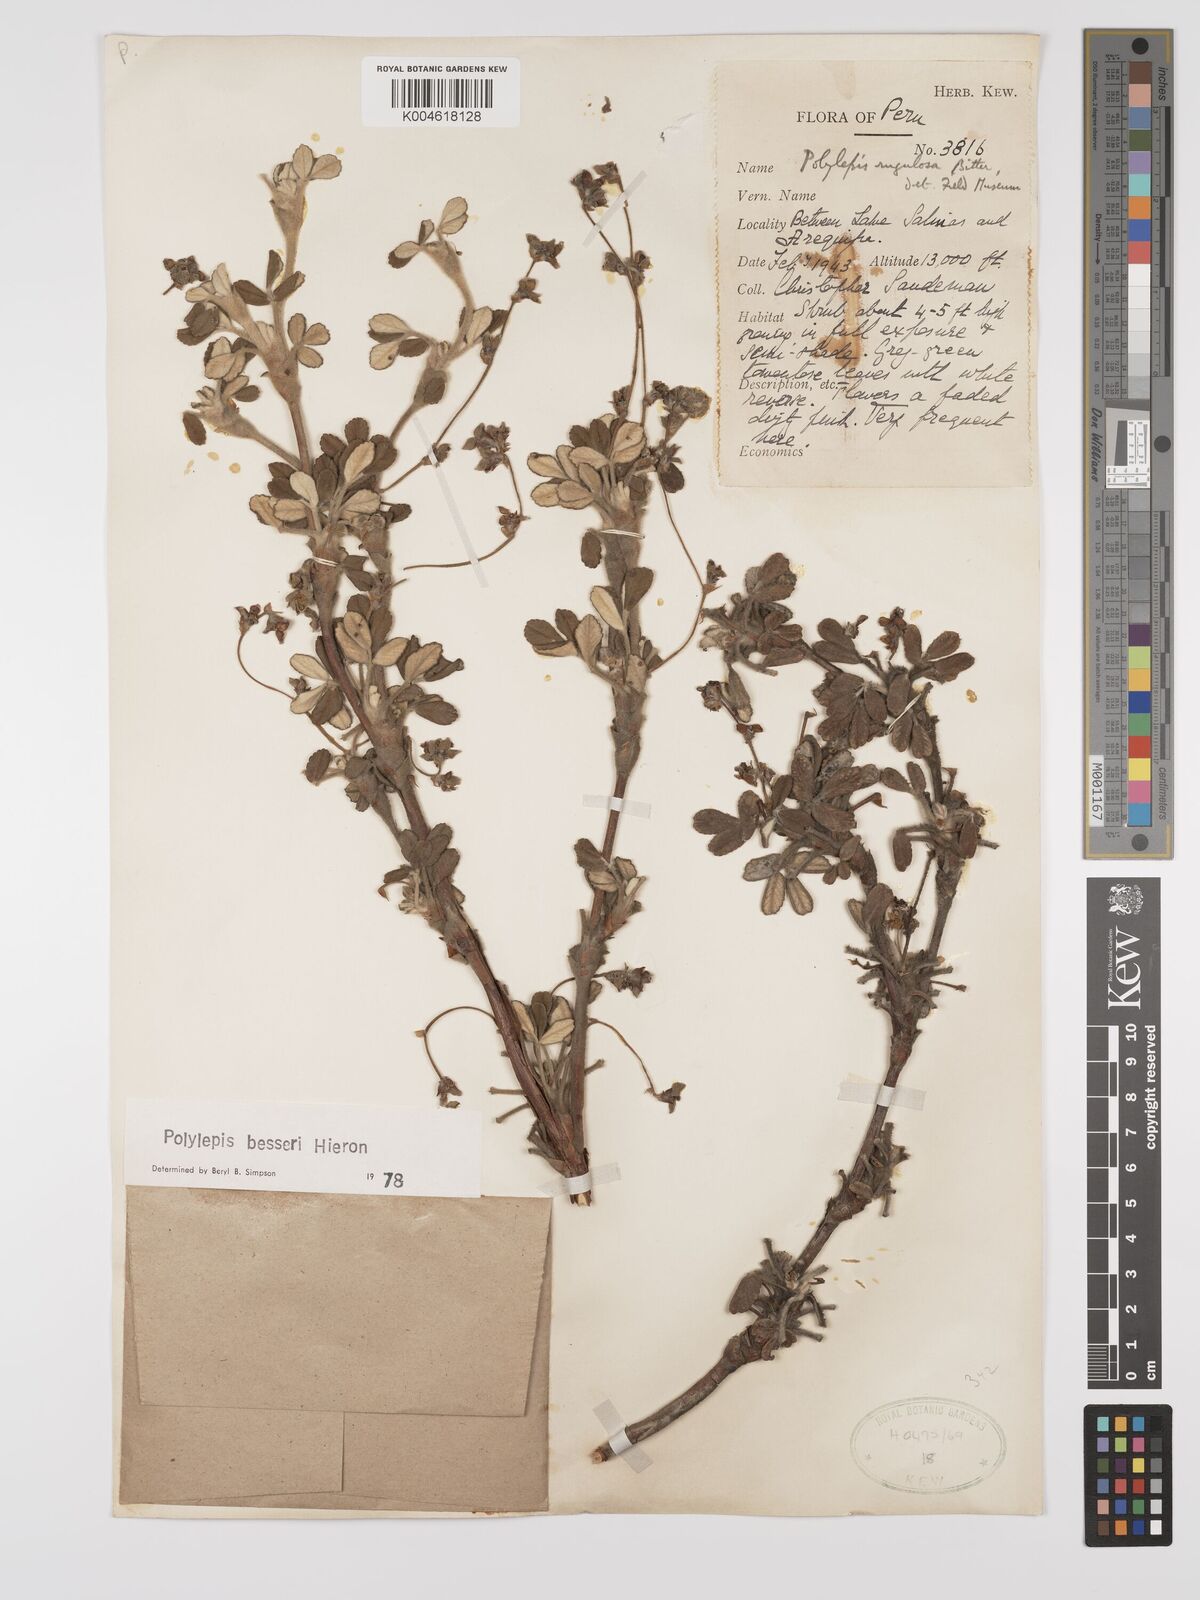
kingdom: Plantae
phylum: Tracheophyta
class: Magnoliopsida
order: Rosales
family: Rosaceae
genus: Polylepis
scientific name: Polylepis
